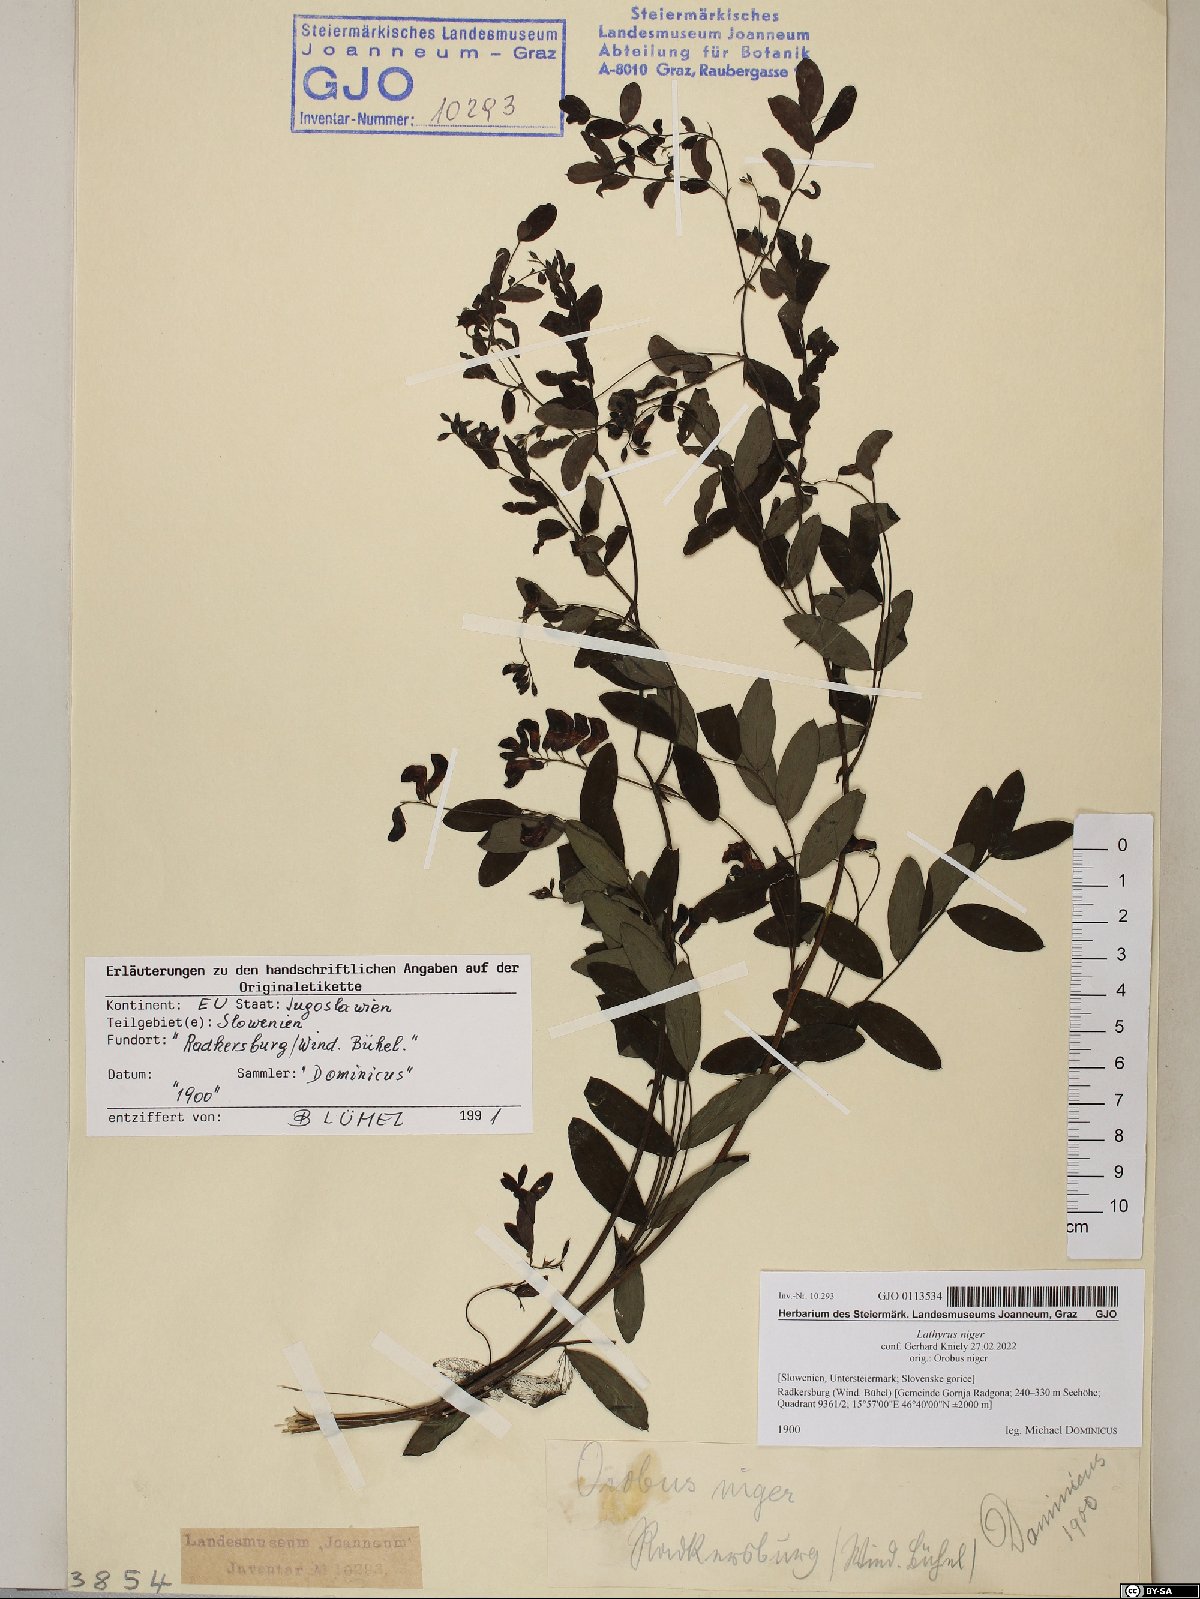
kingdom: Plantae
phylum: Tracheophyta
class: Magnoliopsida
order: Fabales
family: Fabaceae
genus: Lathyrus
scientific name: Lathyrus niger
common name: Black pea
